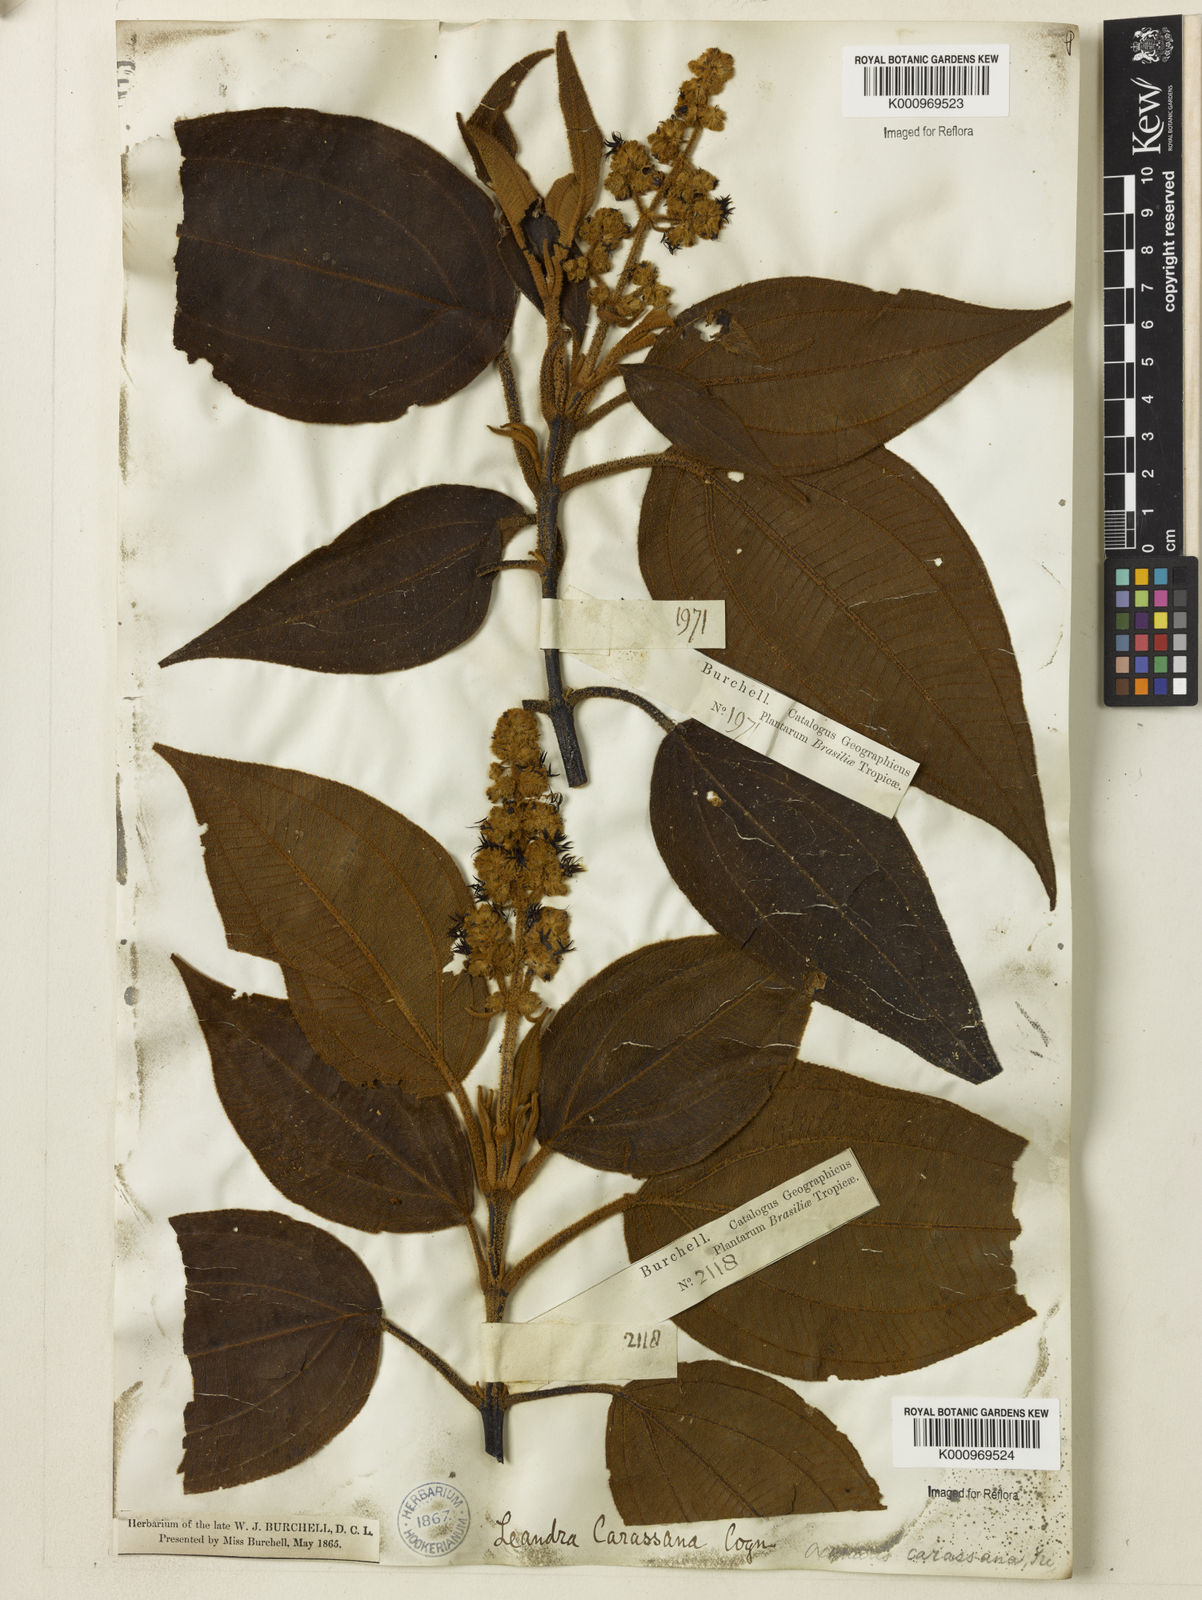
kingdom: Plantae
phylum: Tracheophyta
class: Magnoliopsida
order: Myrtales
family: Melastomataceae
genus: Miconia
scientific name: Miconia sublanata
